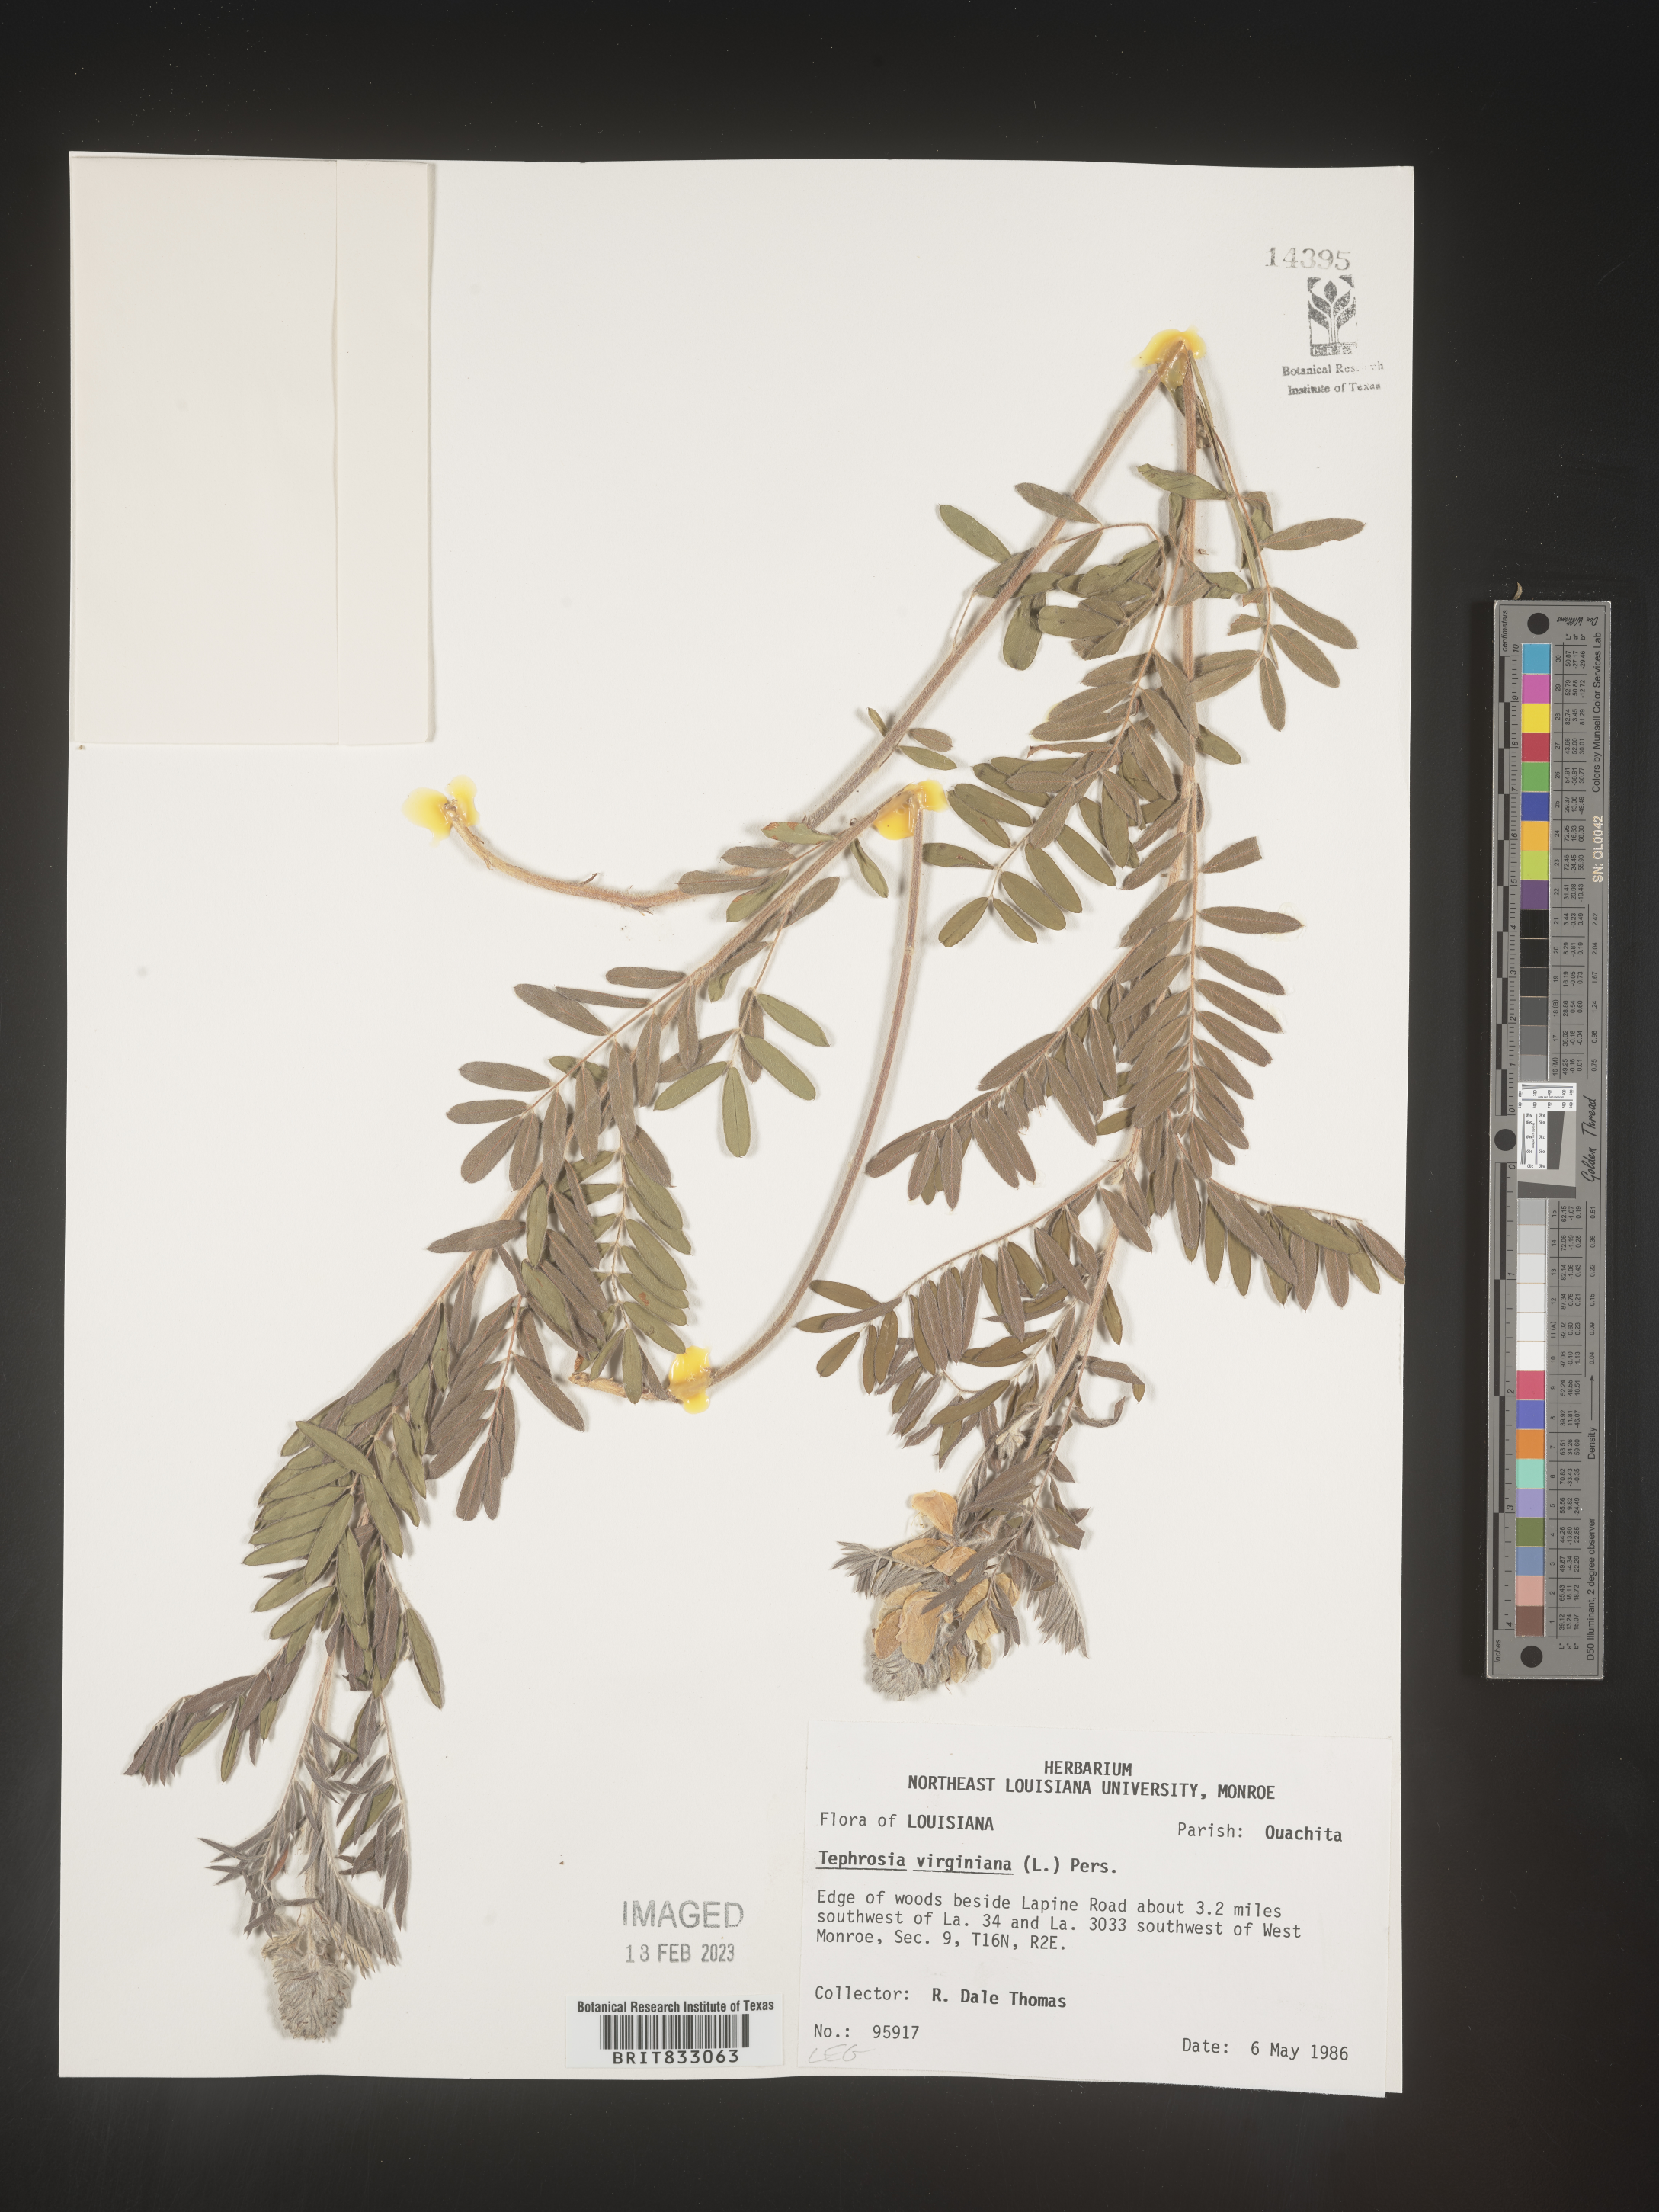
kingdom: Plantae
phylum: Tracheophyta
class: Magnoliopsida
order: Fabales
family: Fabaceae
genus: Tephrosia
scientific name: Tephrosia virginiana
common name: Rabbit-pea
